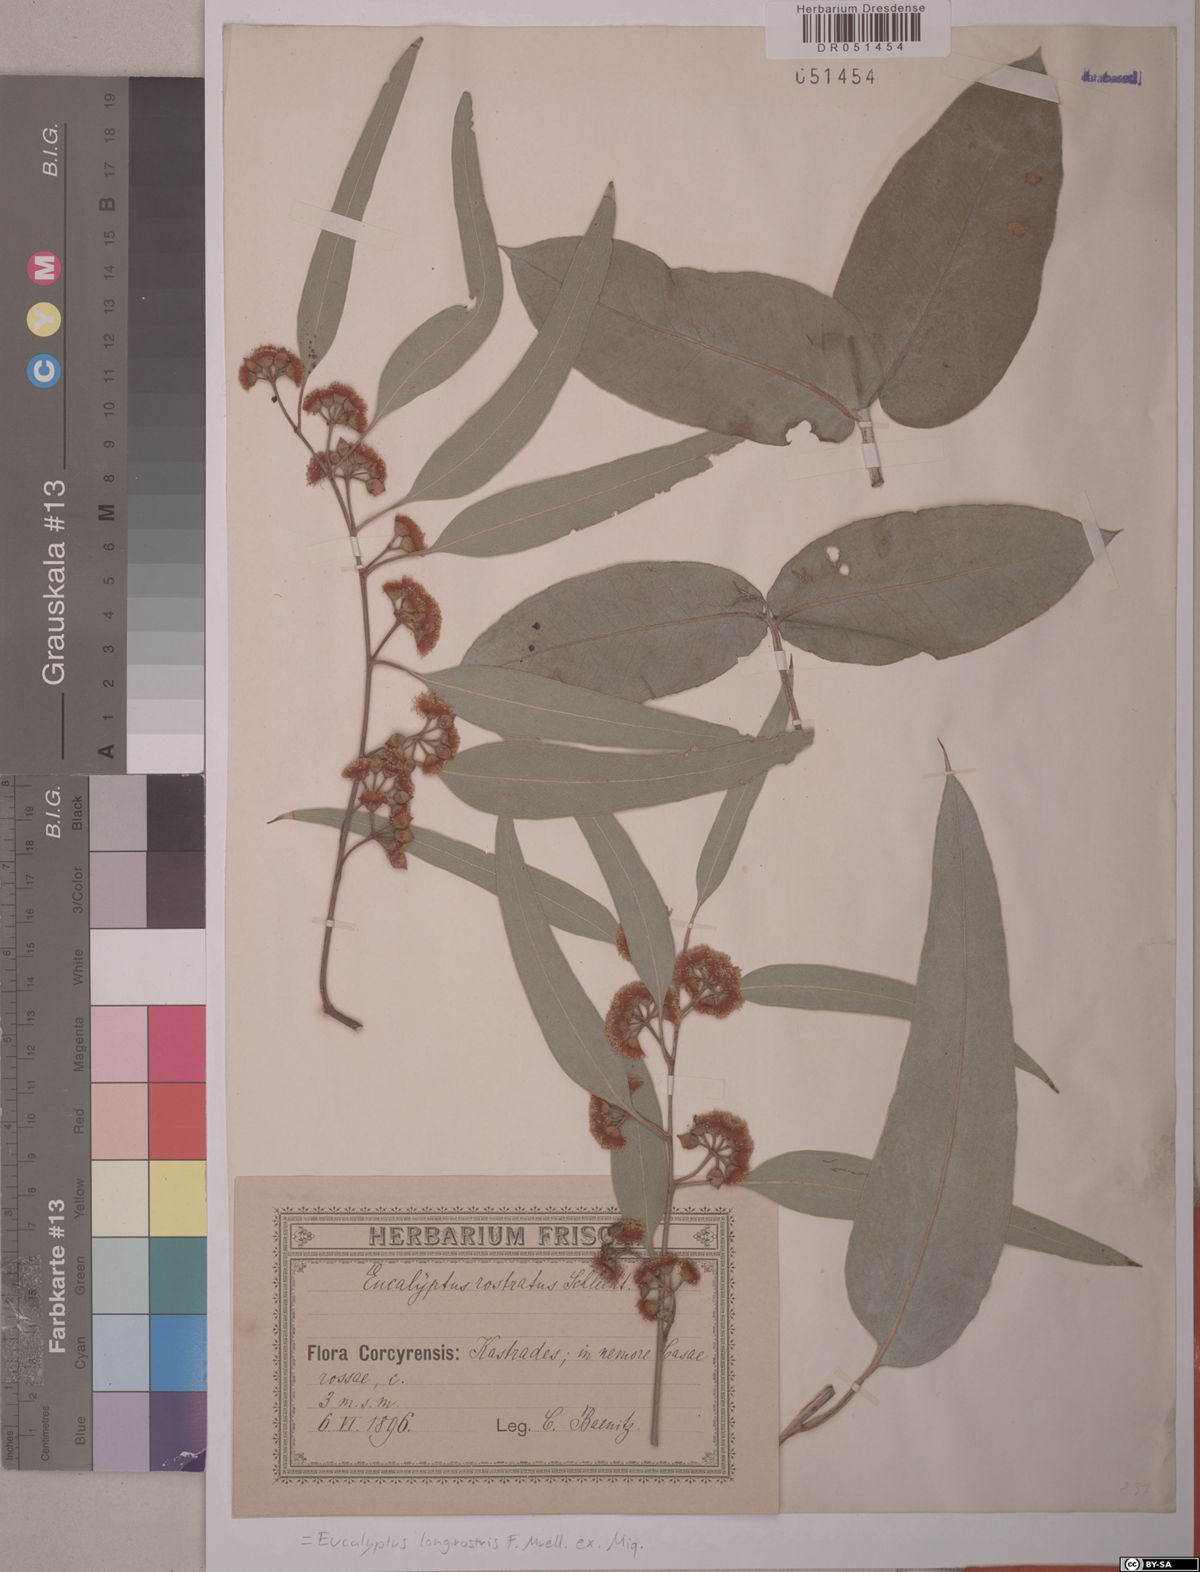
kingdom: Plantae
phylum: Tracheophyta
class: Magnoliopsida
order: Myrtales
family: Myrtaceae
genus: Eucalyptus
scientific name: Eucalyptus camaldulensis
